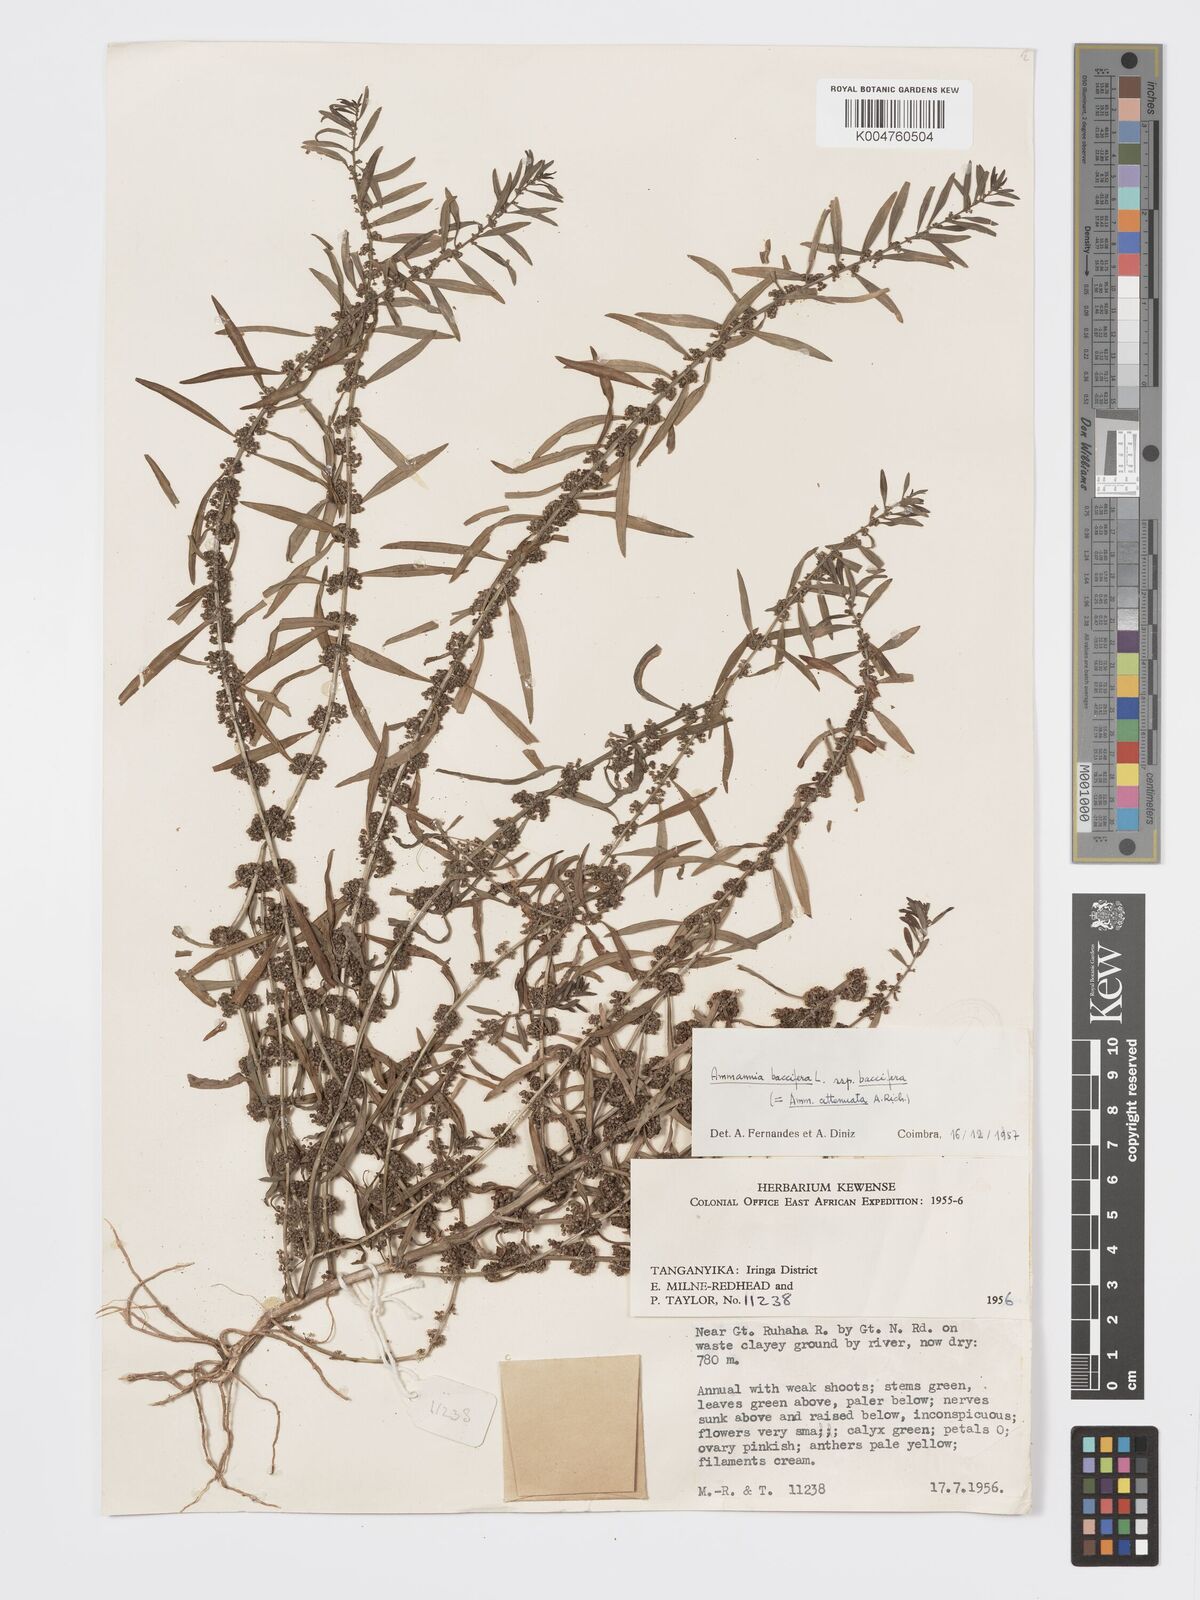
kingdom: Plantae
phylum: Tracheophyta
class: Magnoliopsida
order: Myrtales
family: Lythraceae
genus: Ammannia
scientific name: Ammannia
